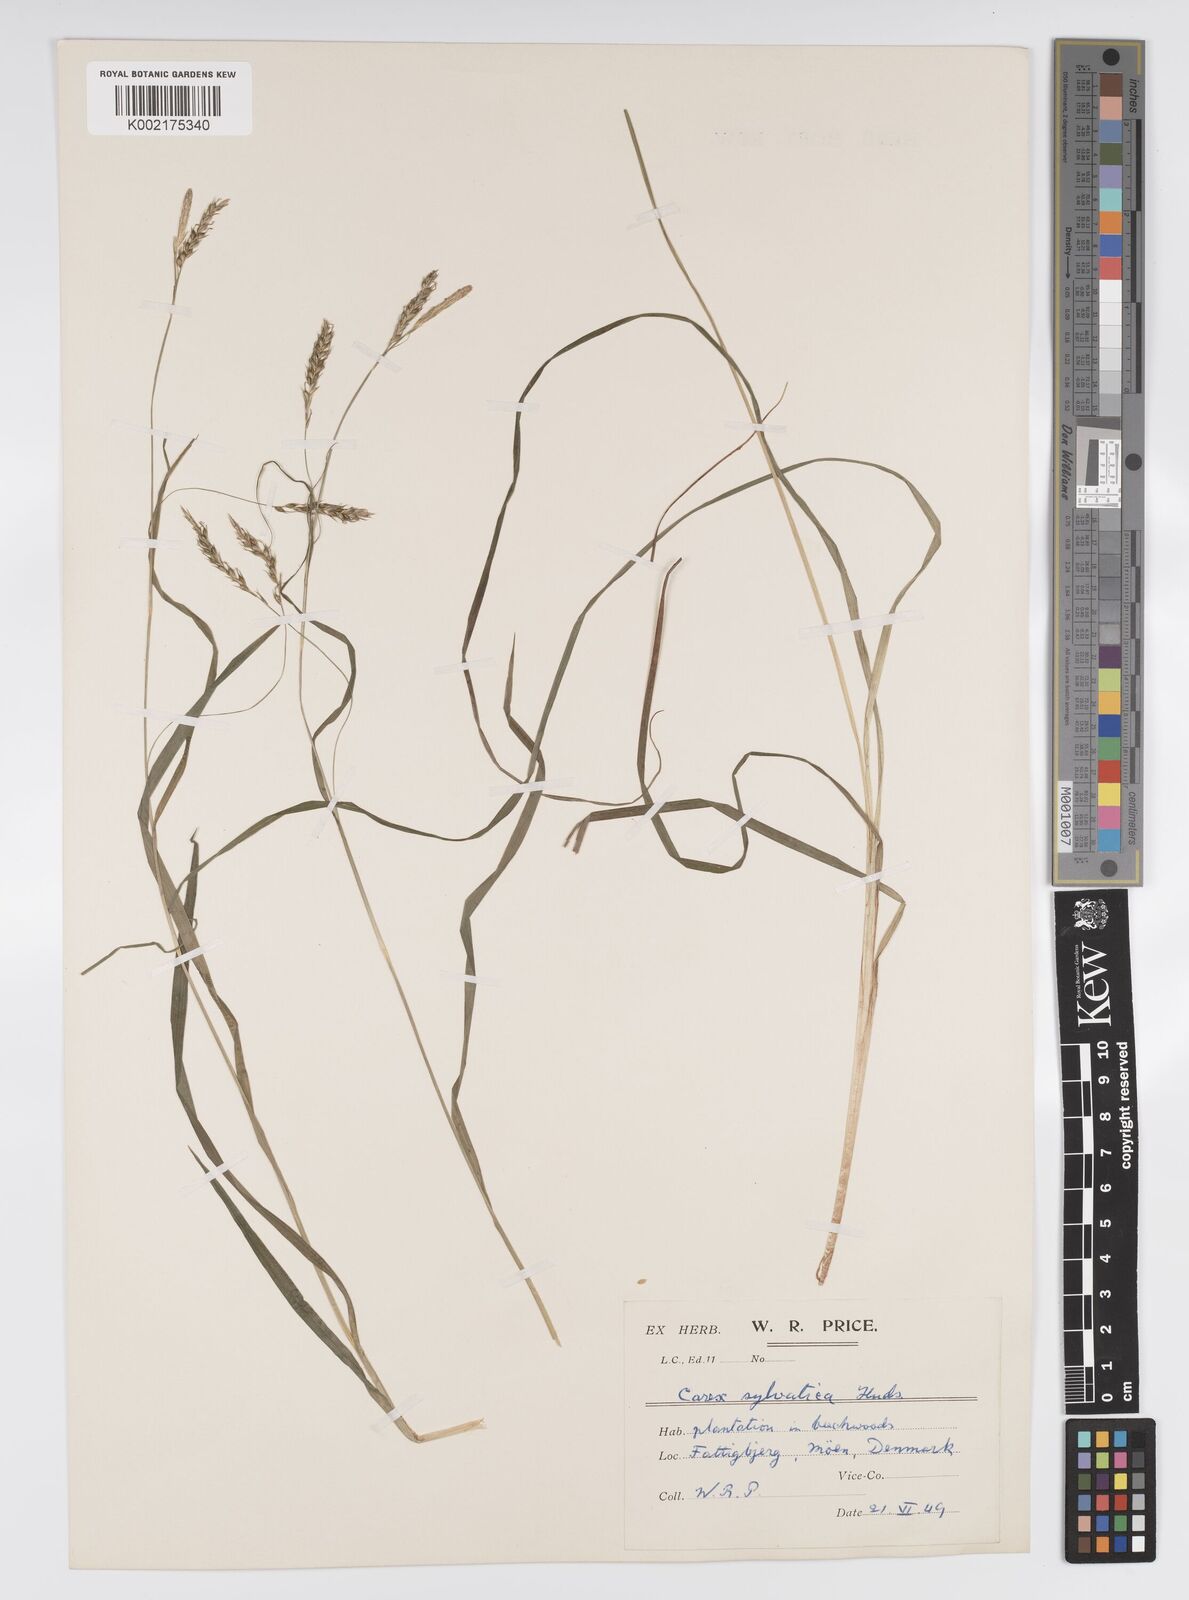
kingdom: Plantae
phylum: Tracheophyta
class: Liliopsida
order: Poales
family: Cyperaceae
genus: Carex
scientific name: Carex sylvatica
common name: Wood-sedge
